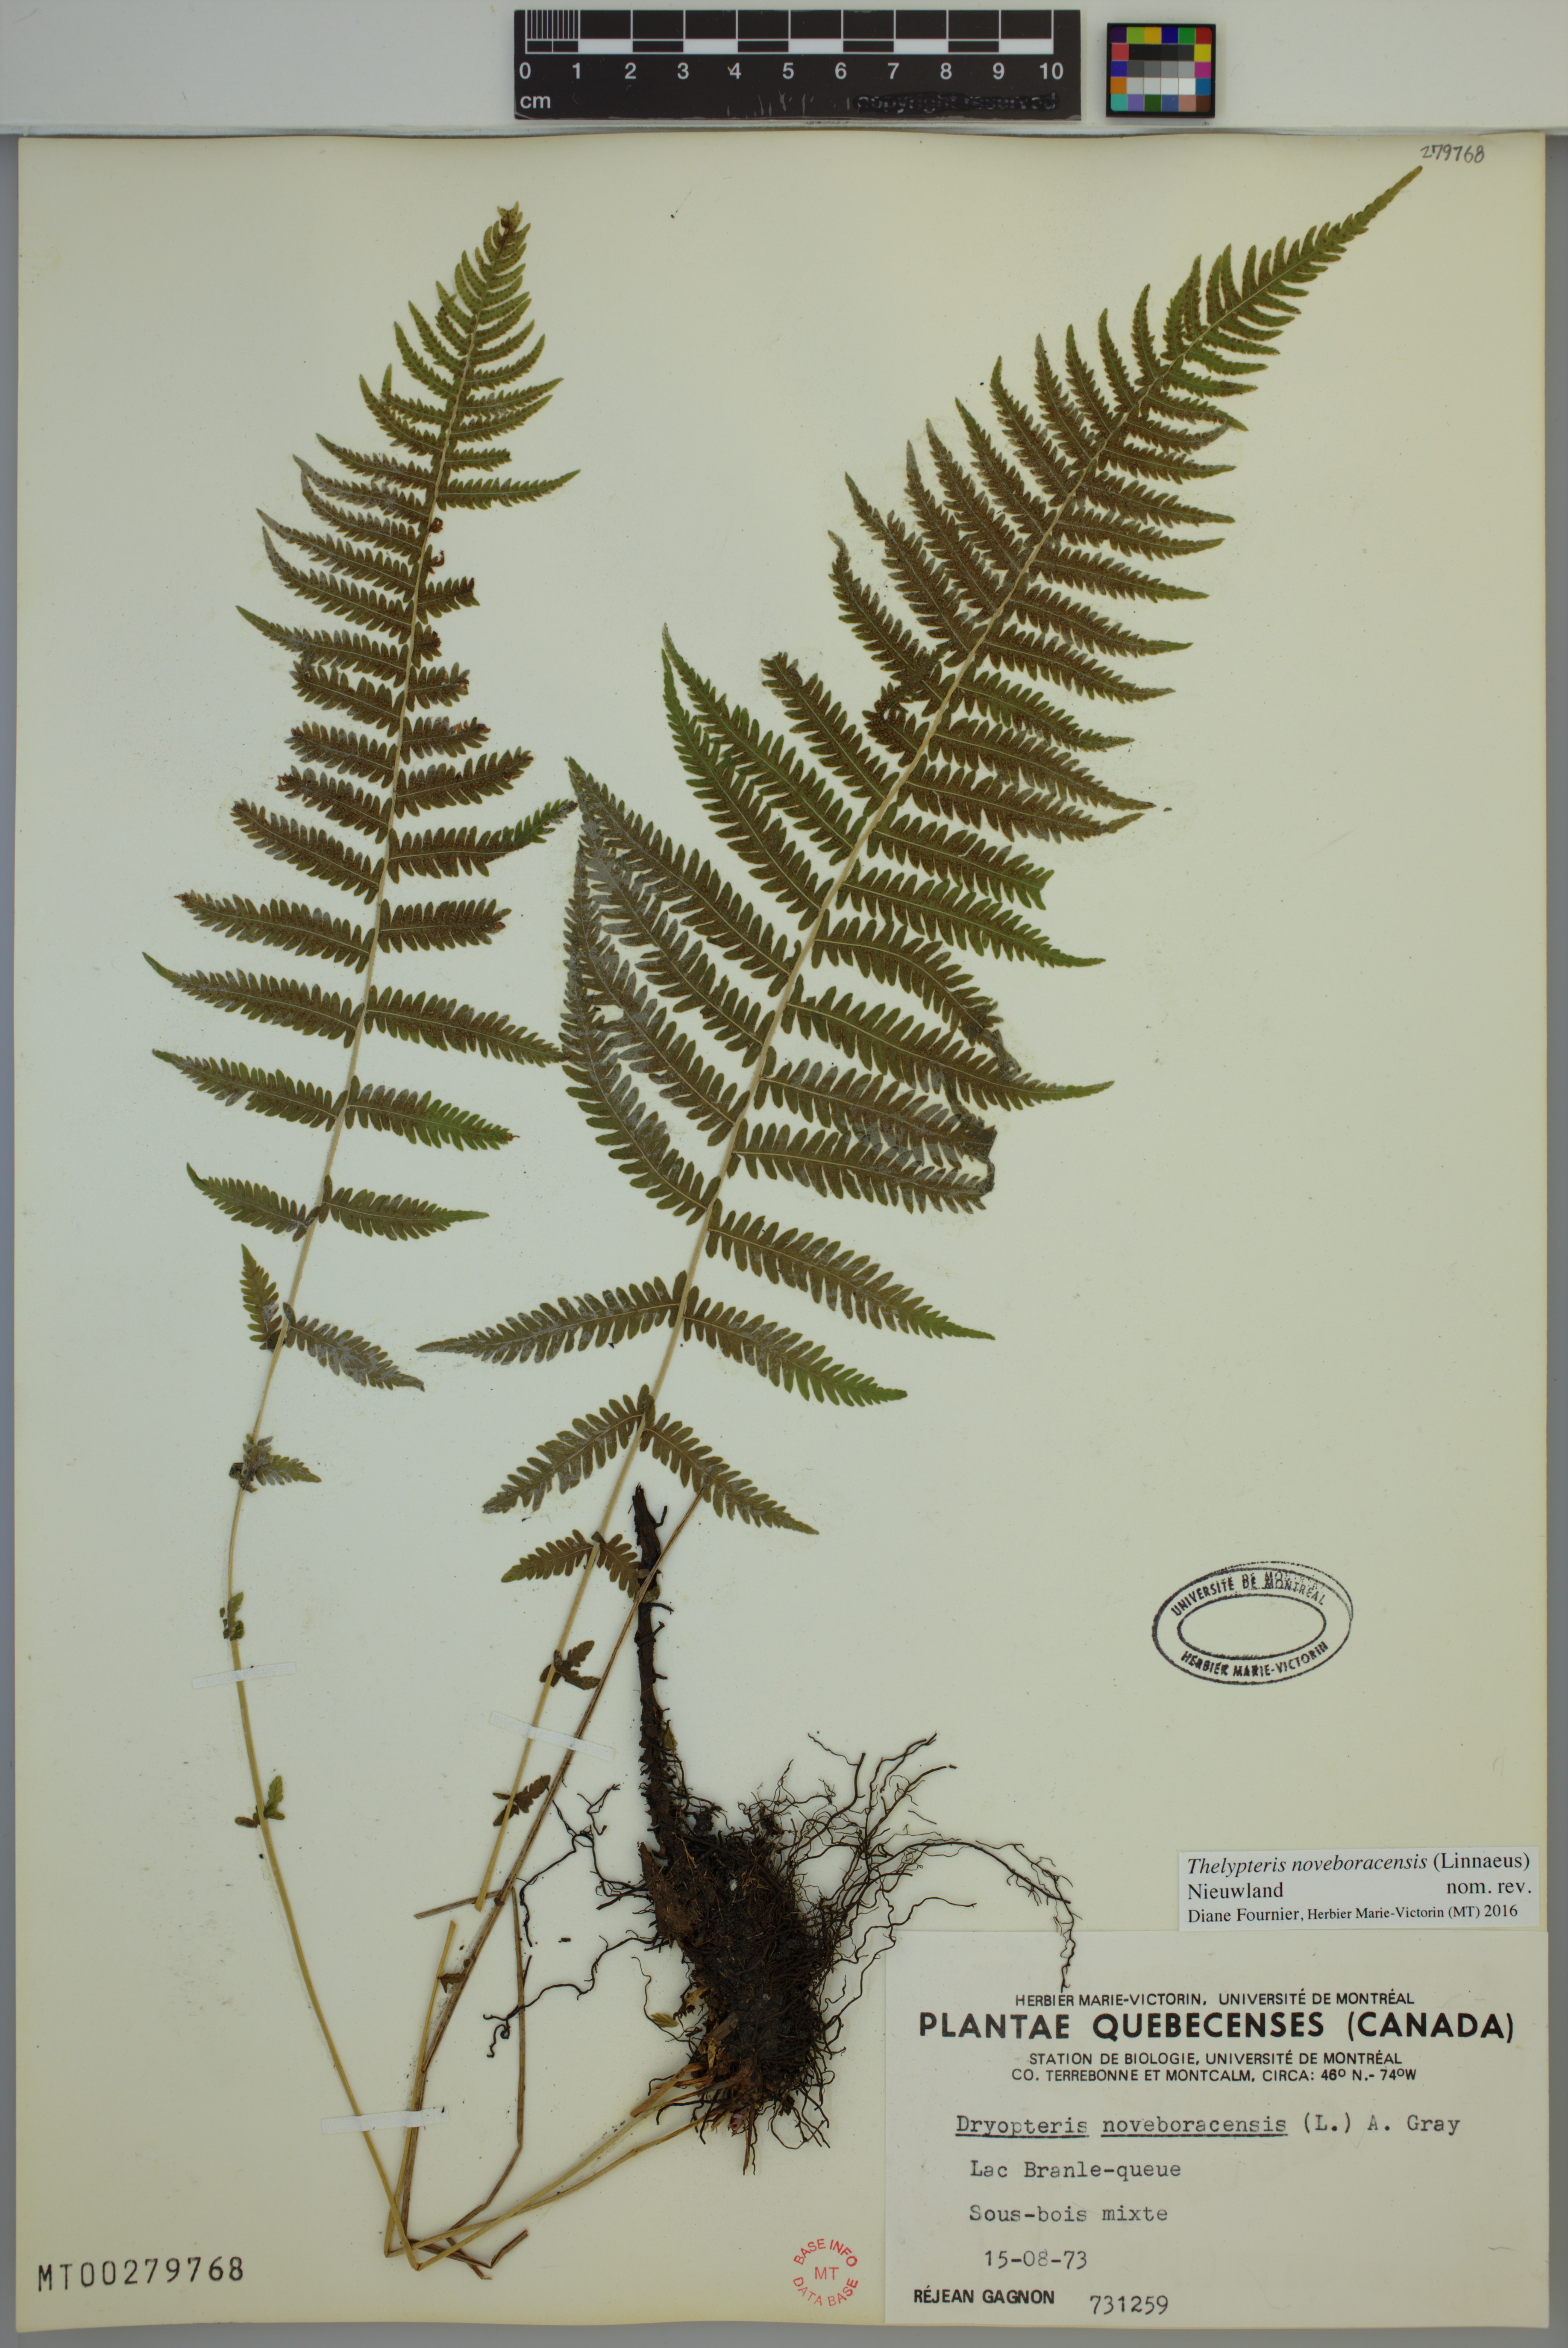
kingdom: Plantae
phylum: Tracheophyta
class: Polypodiopsida
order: Polypodiales
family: Thelypteridaceae
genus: Amauropelta
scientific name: Amauropelta noveboracensis
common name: New york fern
